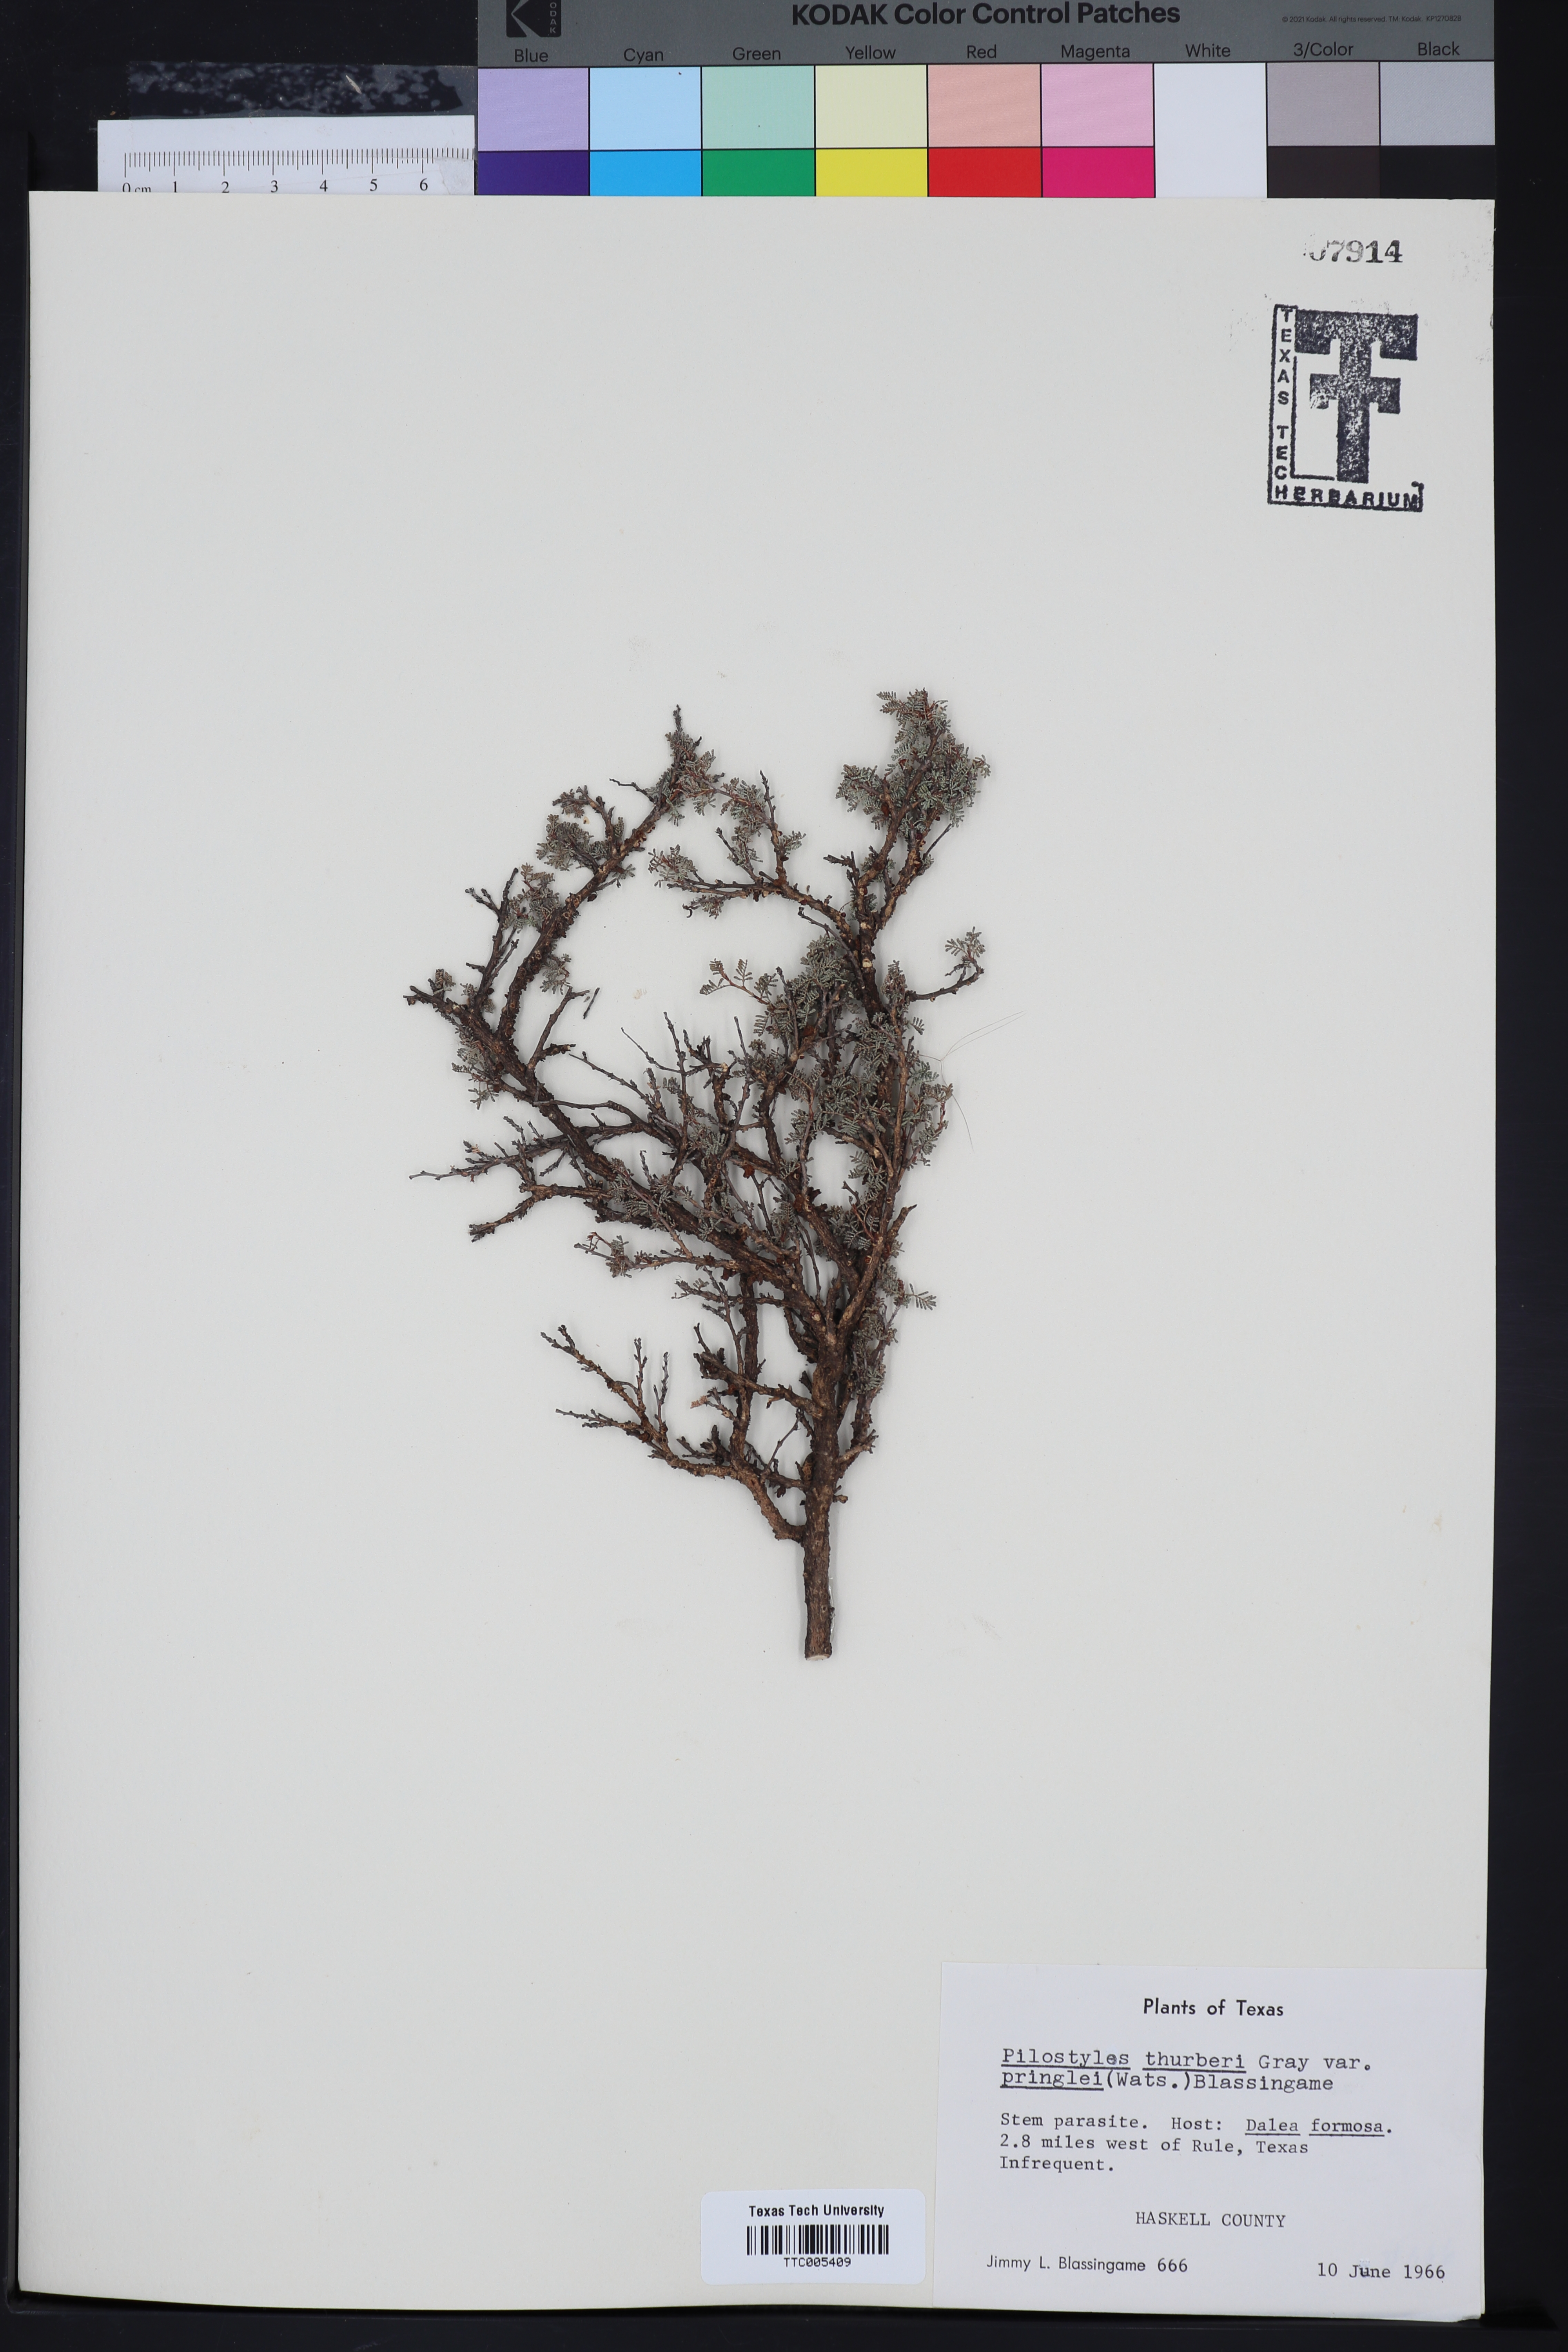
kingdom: Plantae
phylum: Tracheophyta
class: Magnoliopsida
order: Cucurbitales
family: Apodanthaceae
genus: Pilostyles
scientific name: Pilostyles thurberi
